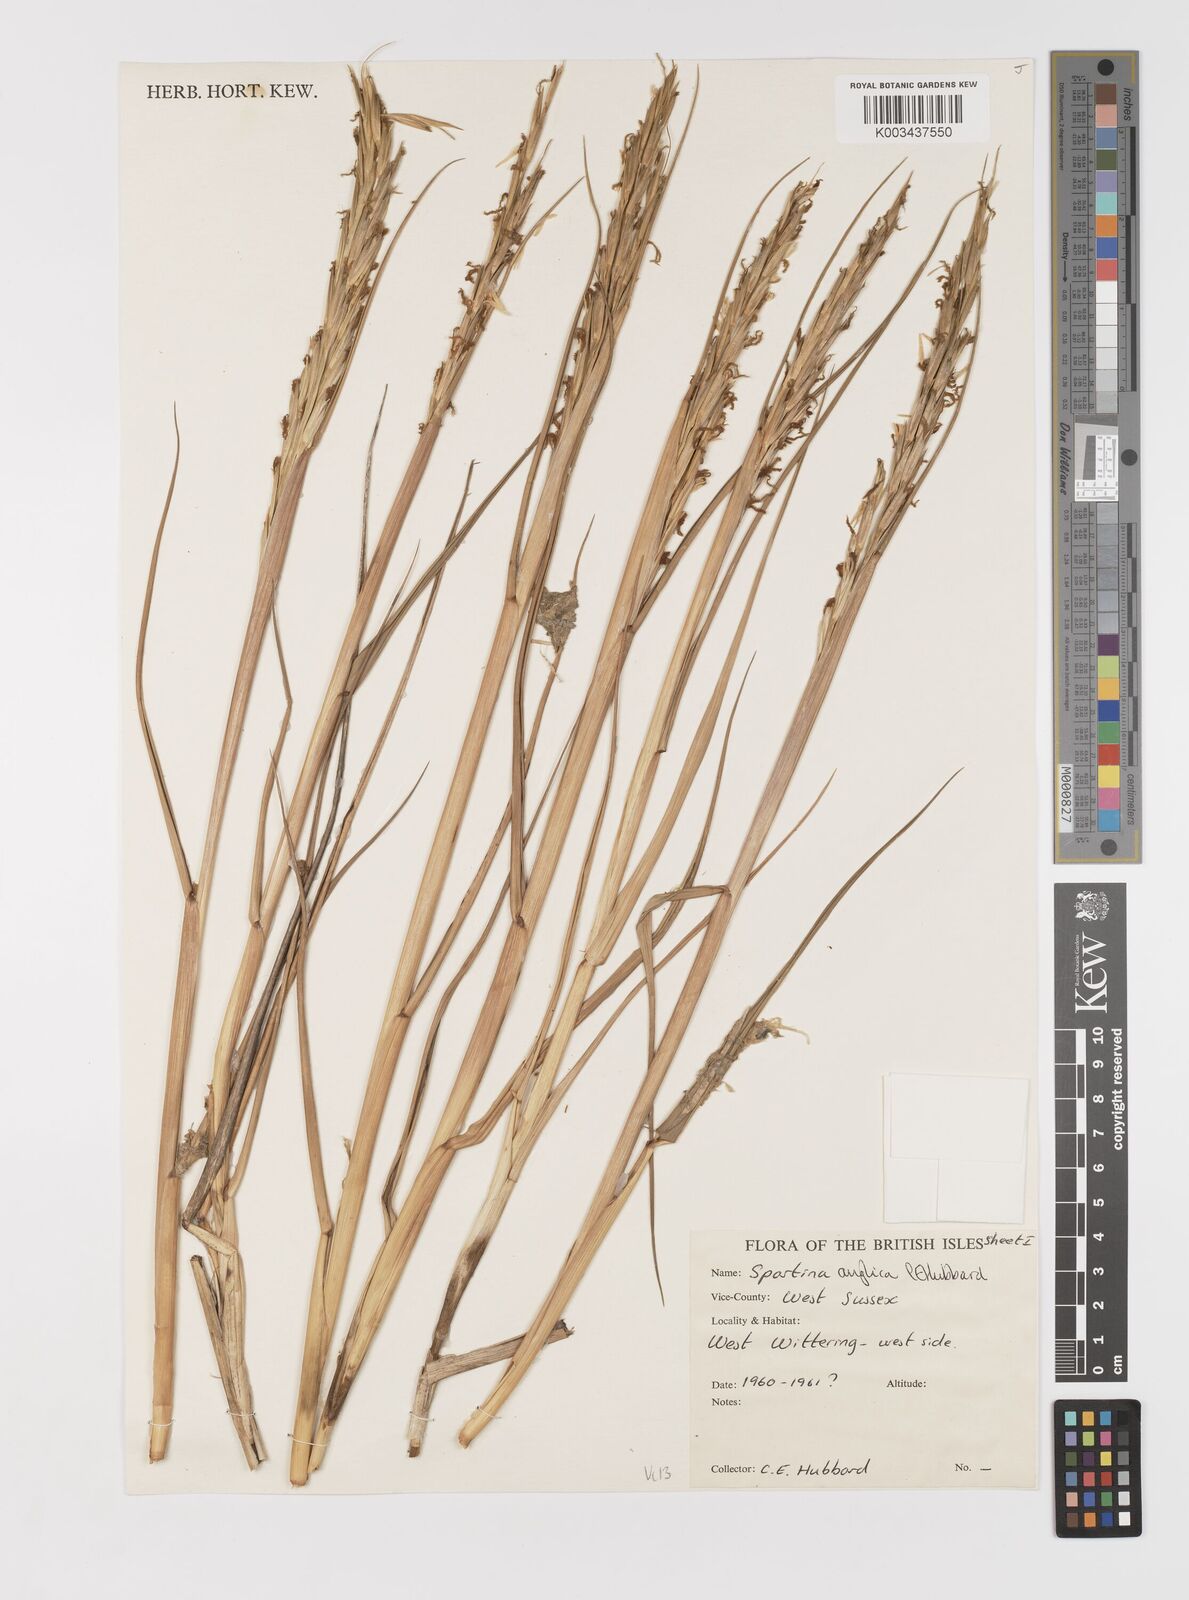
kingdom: Plantae
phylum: Tracheophyta
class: Liliopsida
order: Poales
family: Poaceae
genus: Sporobolus
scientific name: Sporobolus anglicus
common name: English cordgrass
